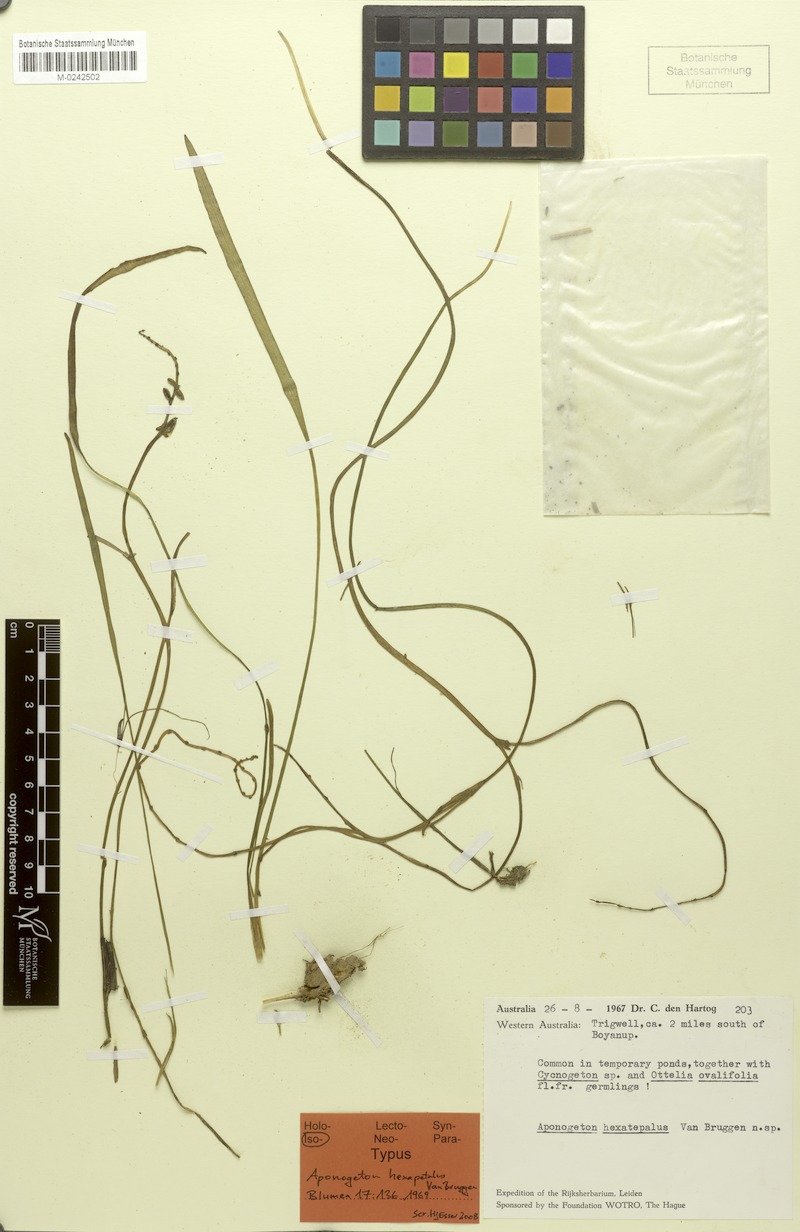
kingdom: Plantae
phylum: Tracheophyta
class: Liliopsida
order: Alismatales
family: Aponogetonaceae
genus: Aponogeton
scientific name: Aponogeton hexatepalus
